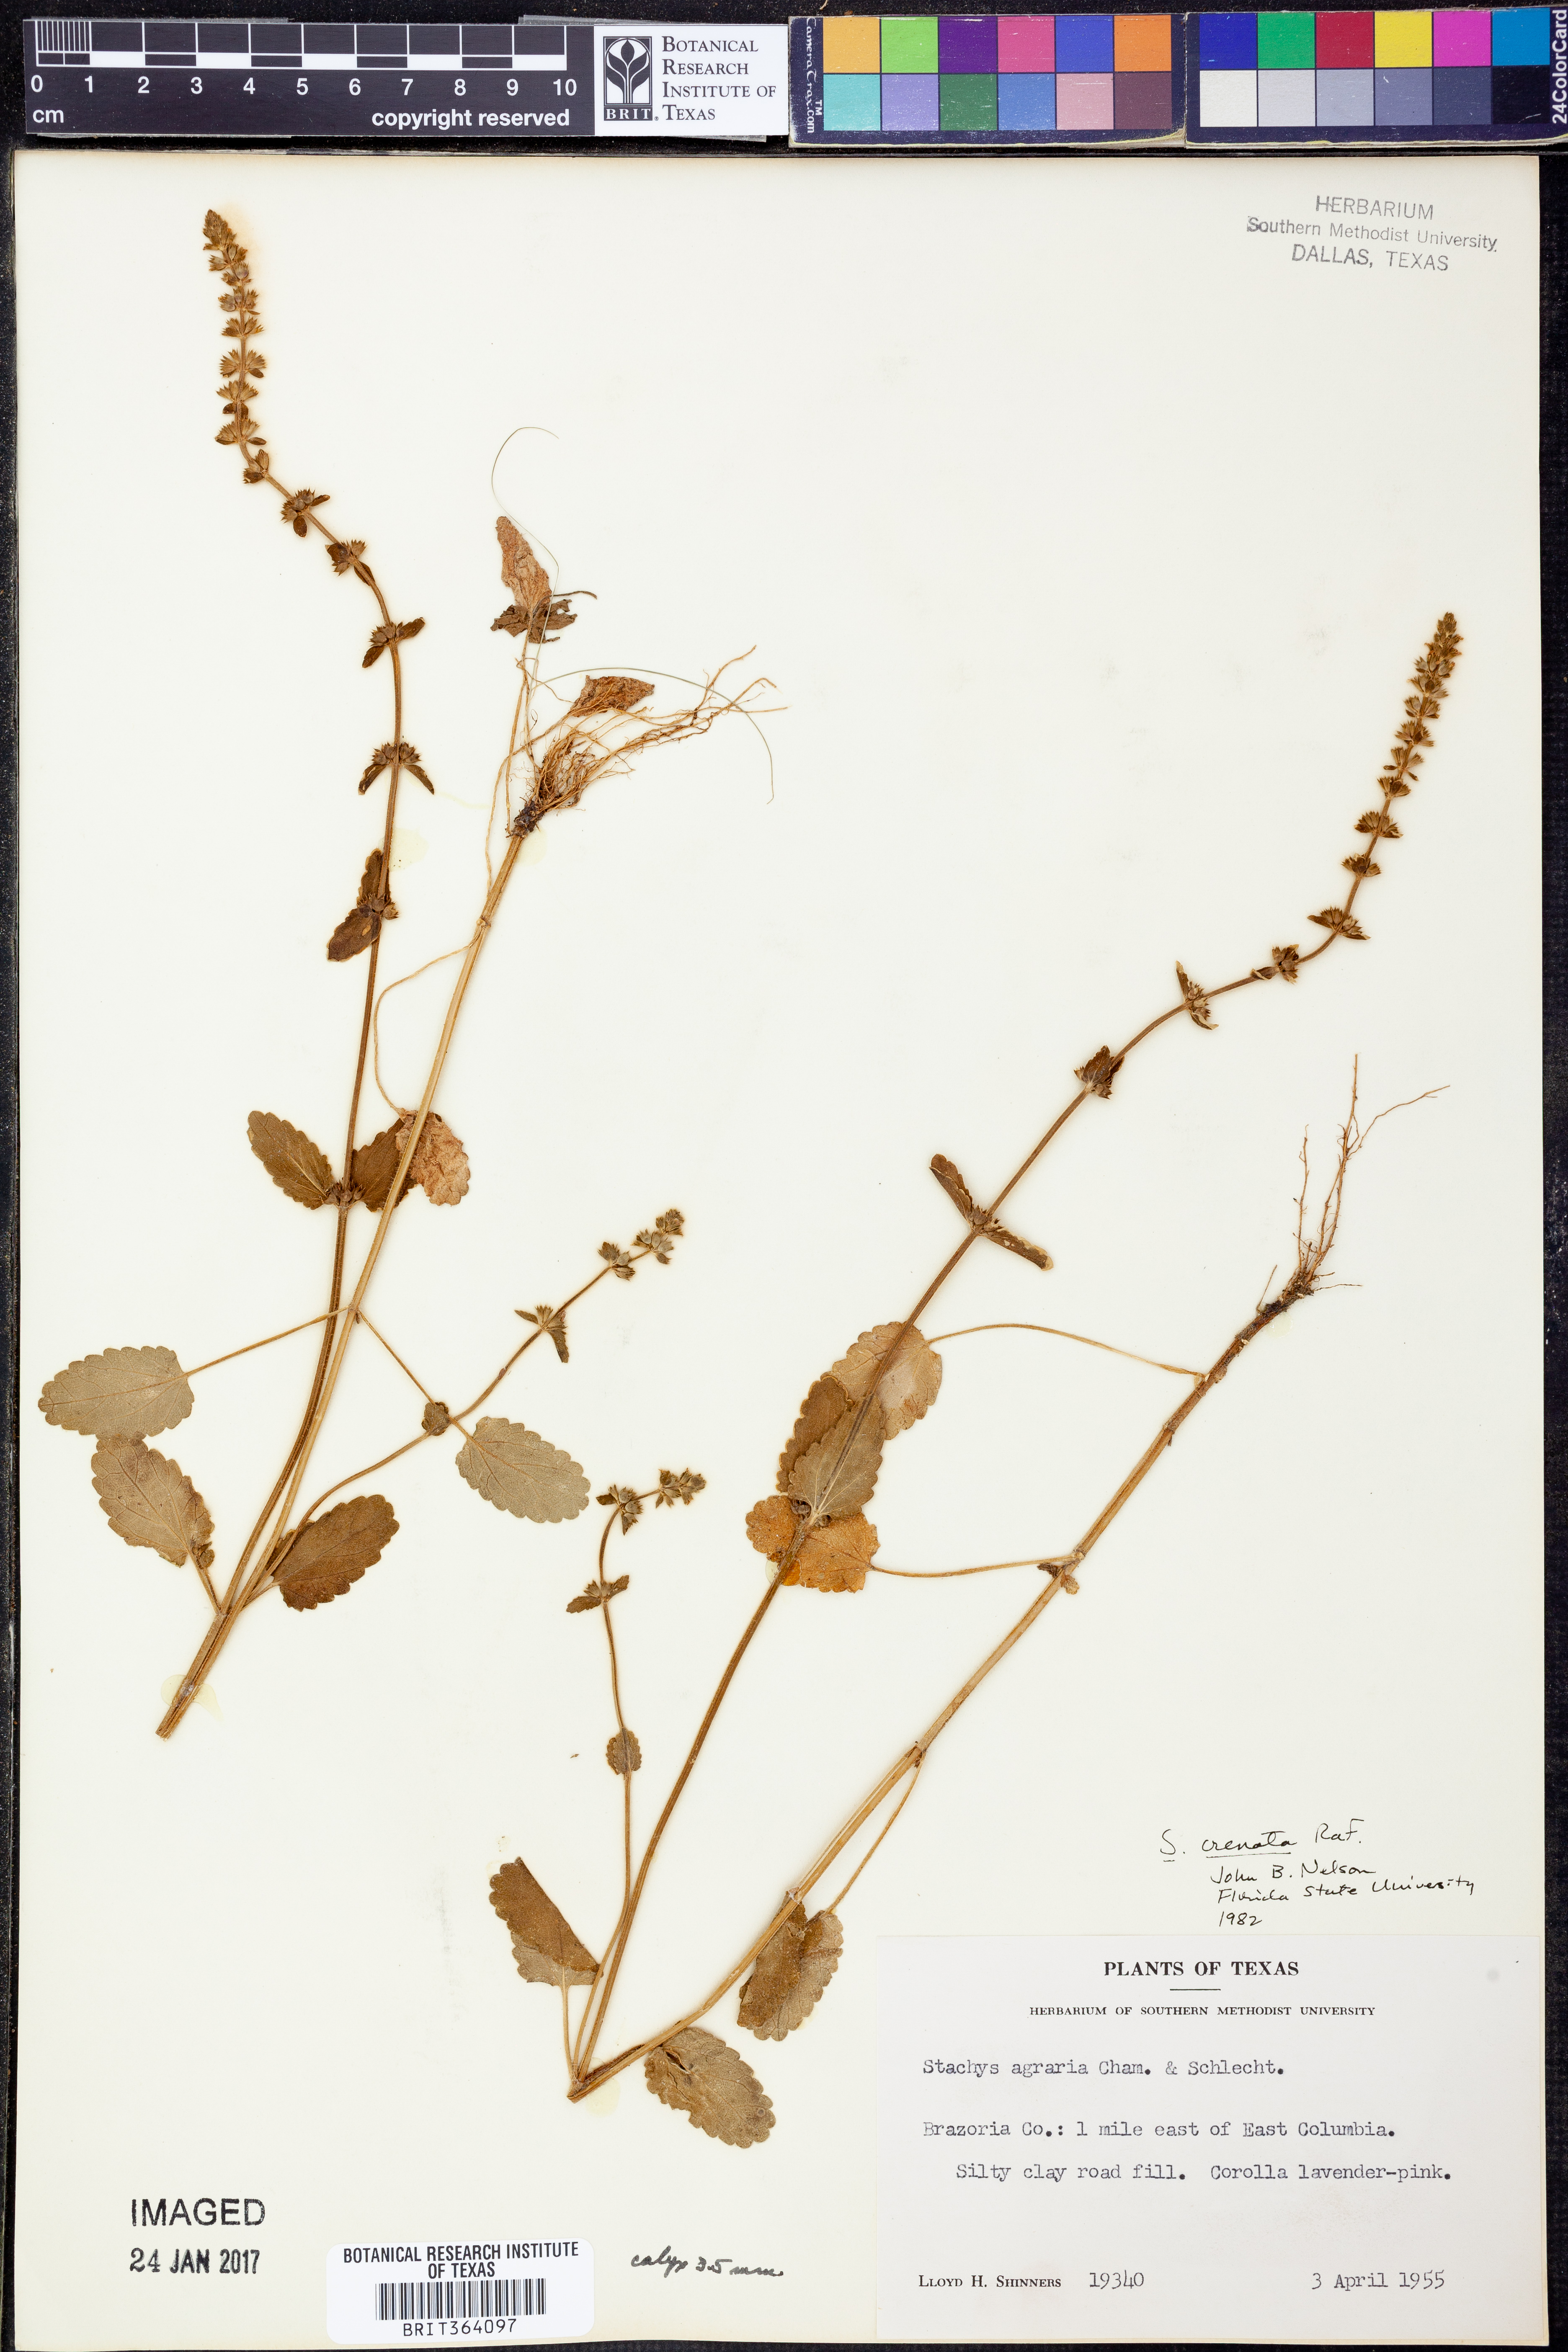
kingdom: Plantae
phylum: Tracheophyta
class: Magnoliopsida
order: Lamiales
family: Lamiaceae
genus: Stachys
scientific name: Stachys agraria
